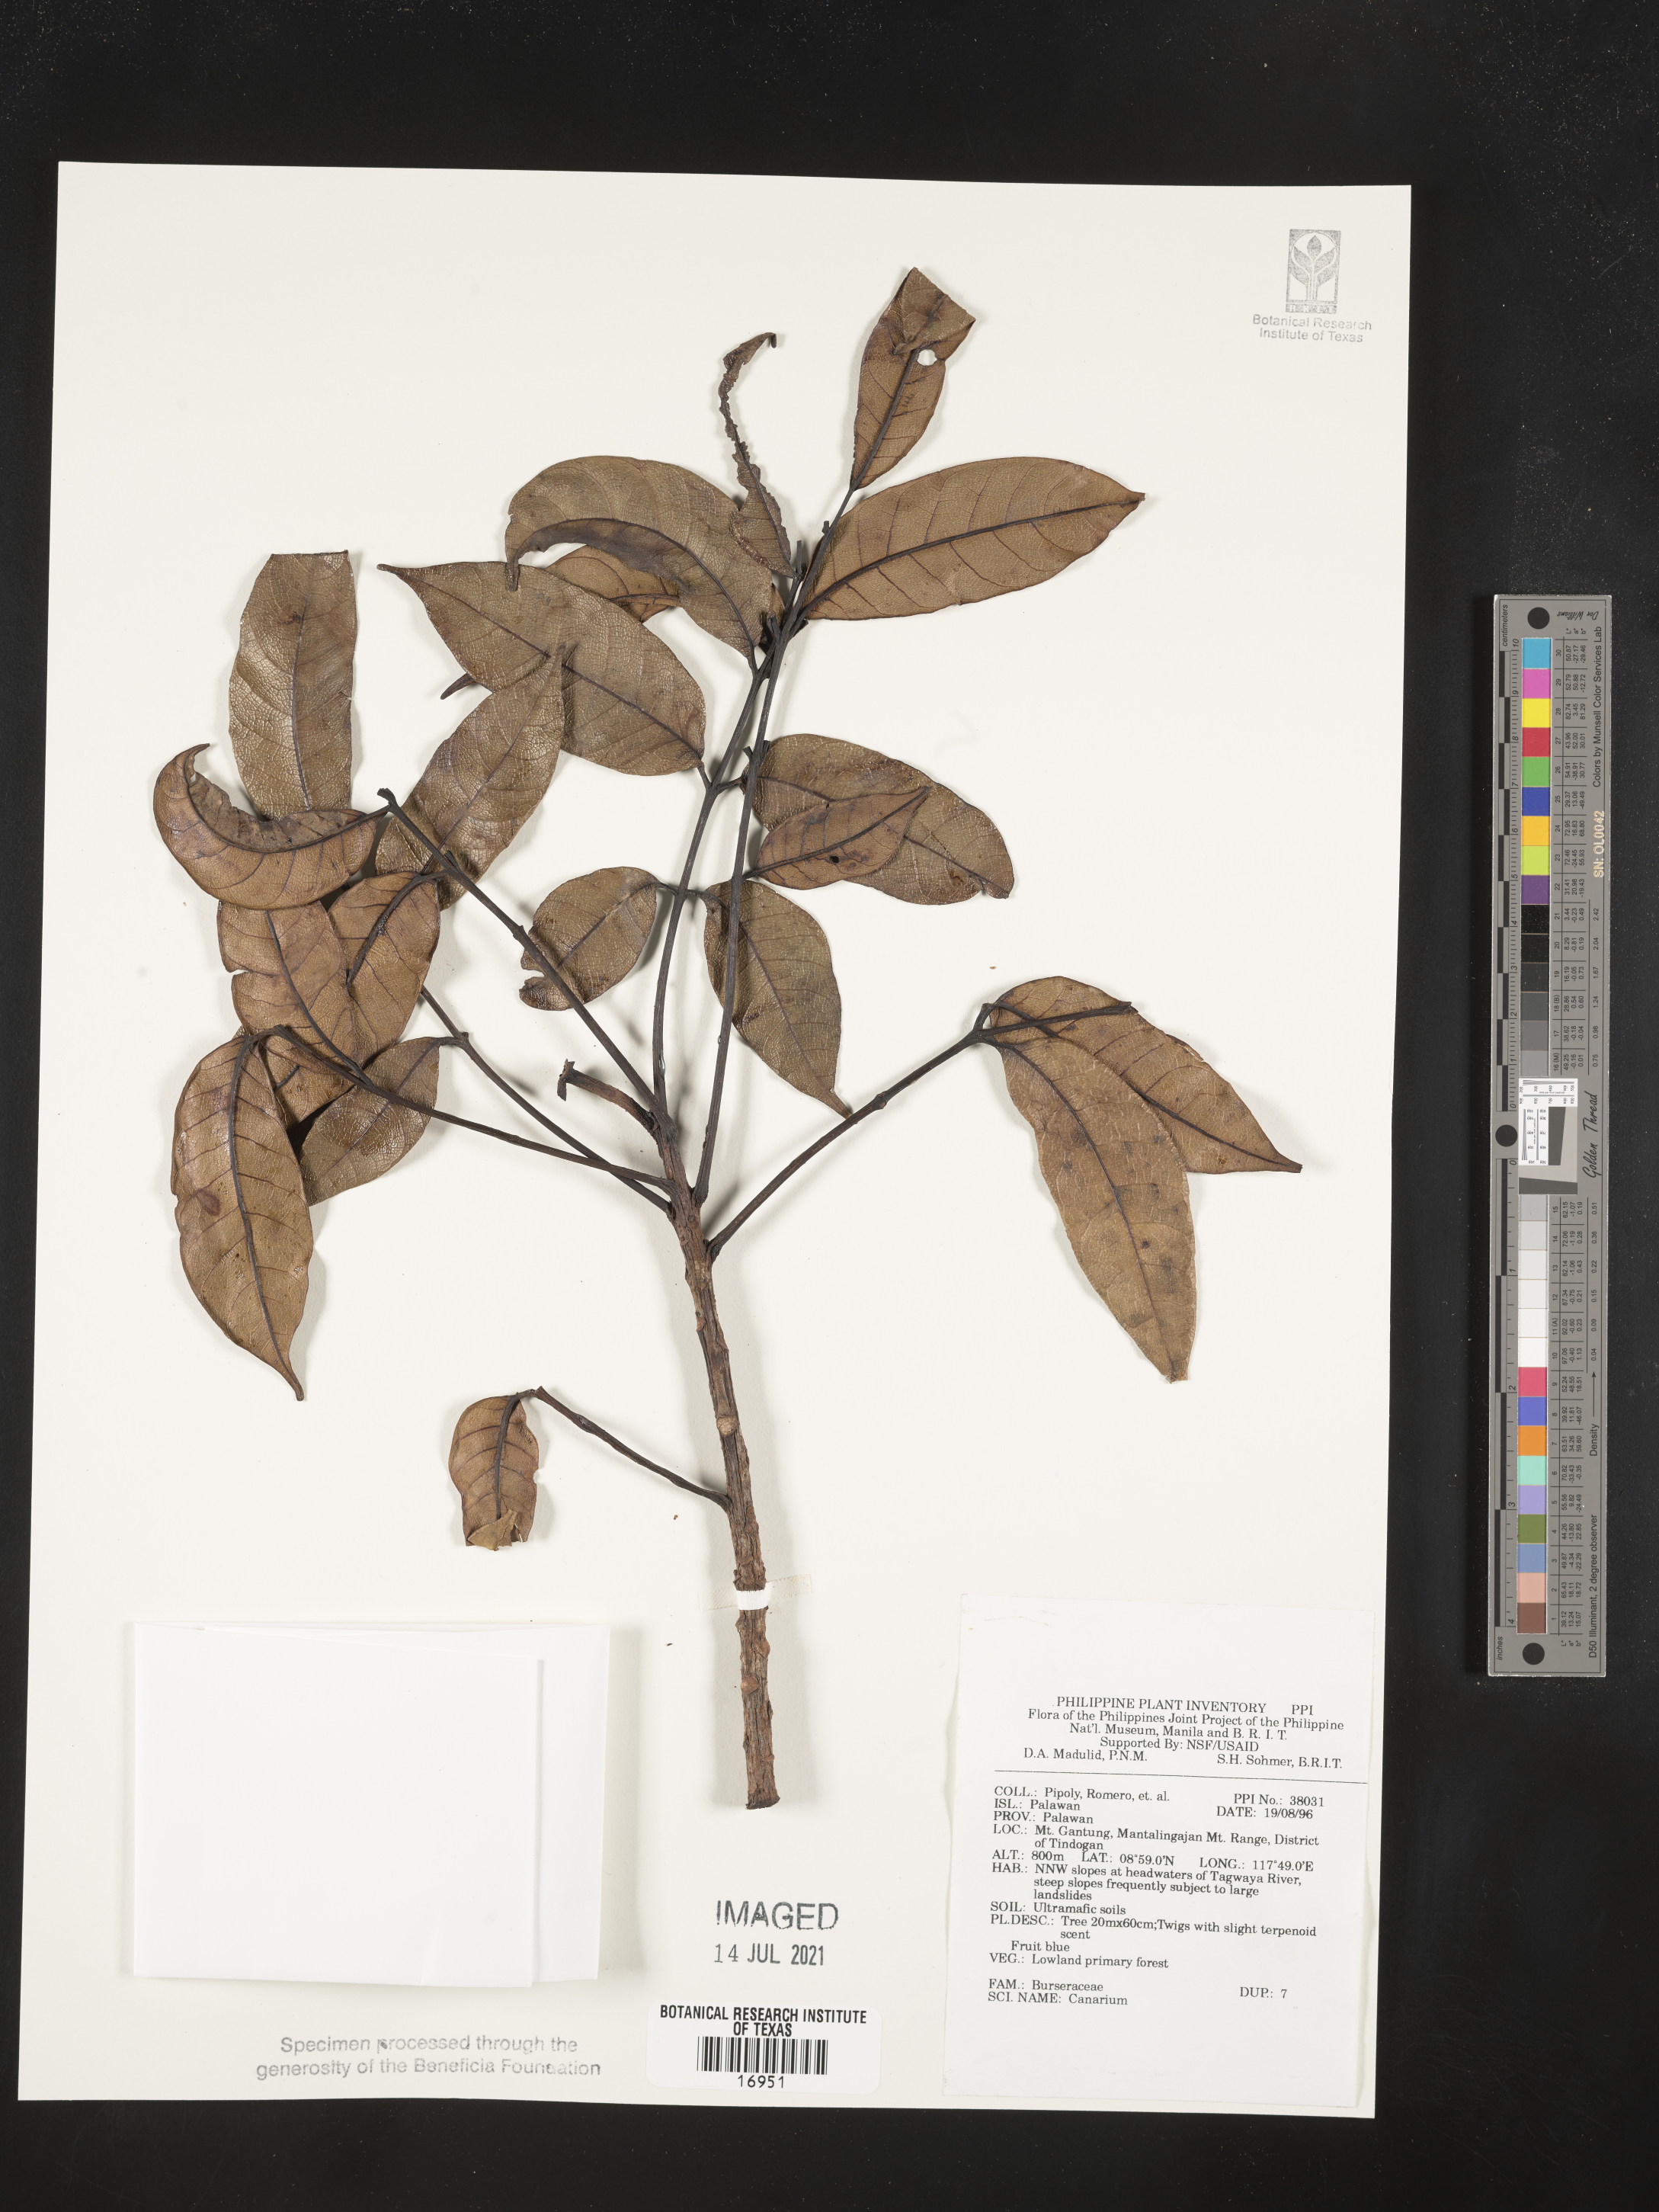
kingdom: Plantae
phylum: Tracheophyta
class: Magnoliopsida
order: Sapindales
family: Burseraceae
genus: Canarium
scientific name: Canarium
